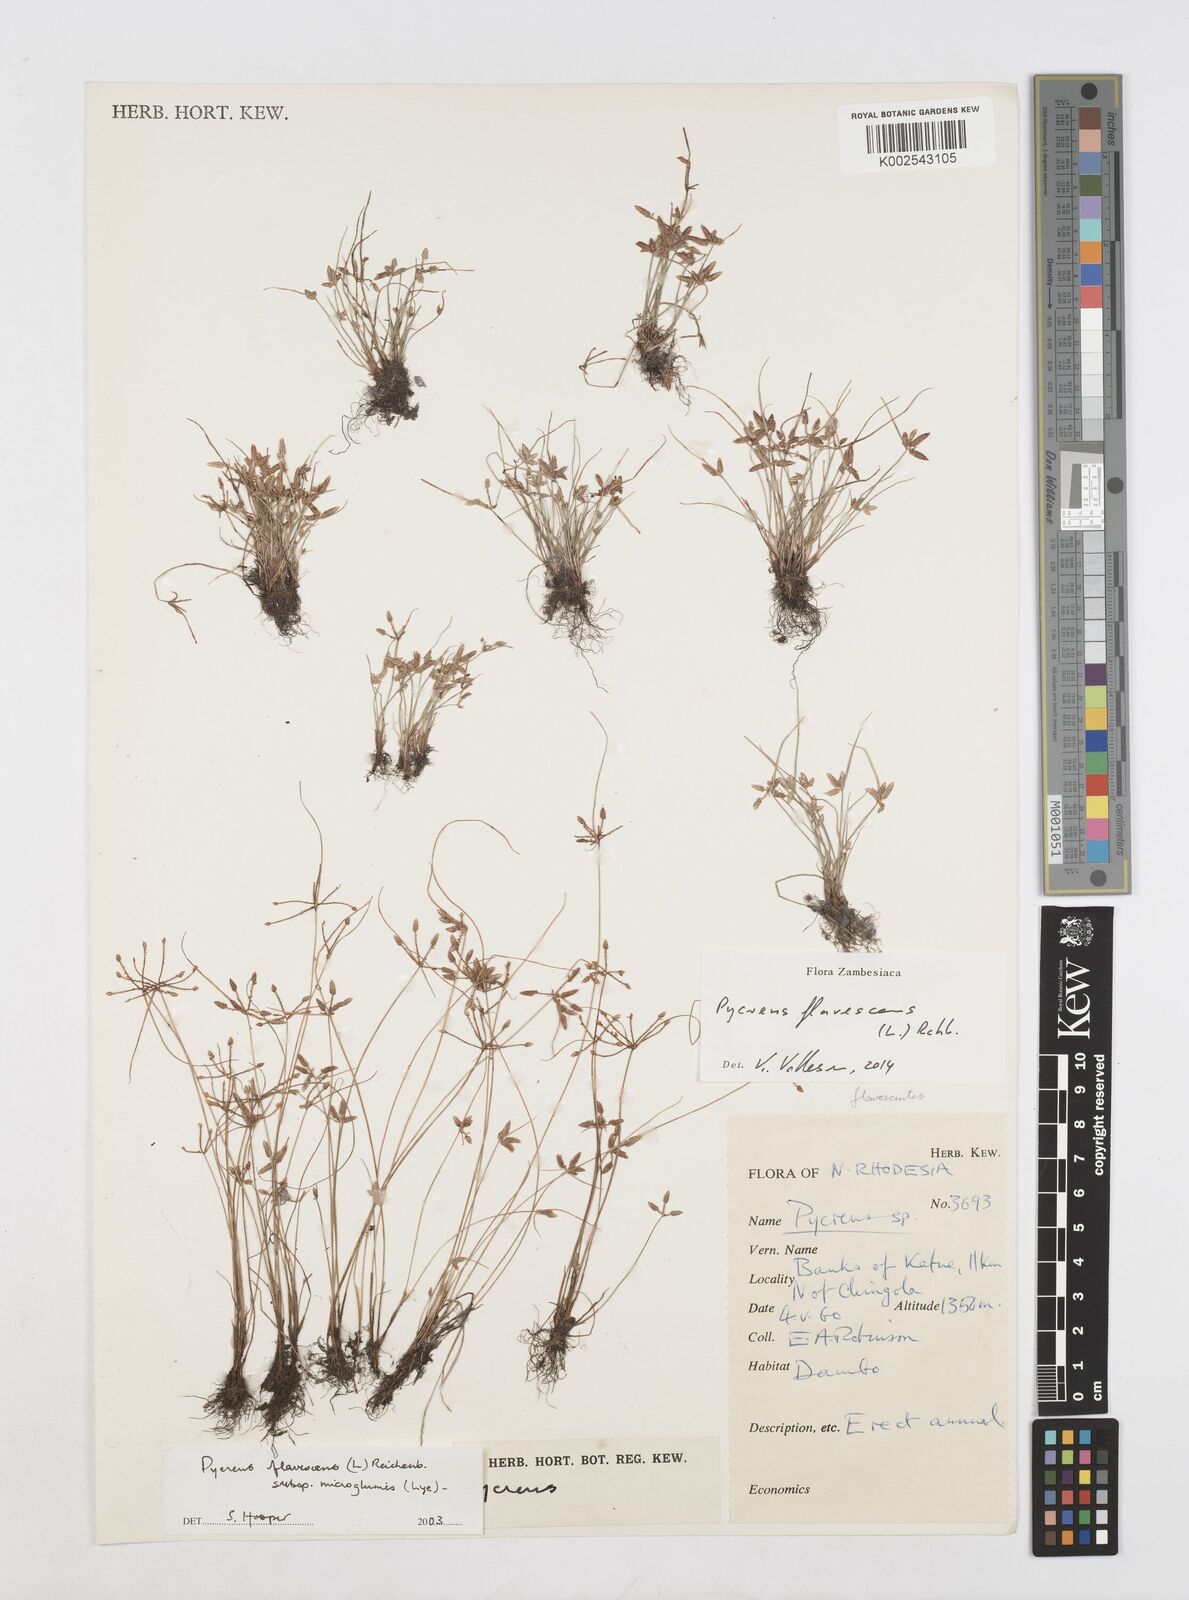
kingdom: Plantae
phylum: Tracheophyta
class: Liliopsida
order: Poales
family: Cyperaceae
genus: Cyperus
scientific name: Cyperus flavescens
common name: Yellow galingale
